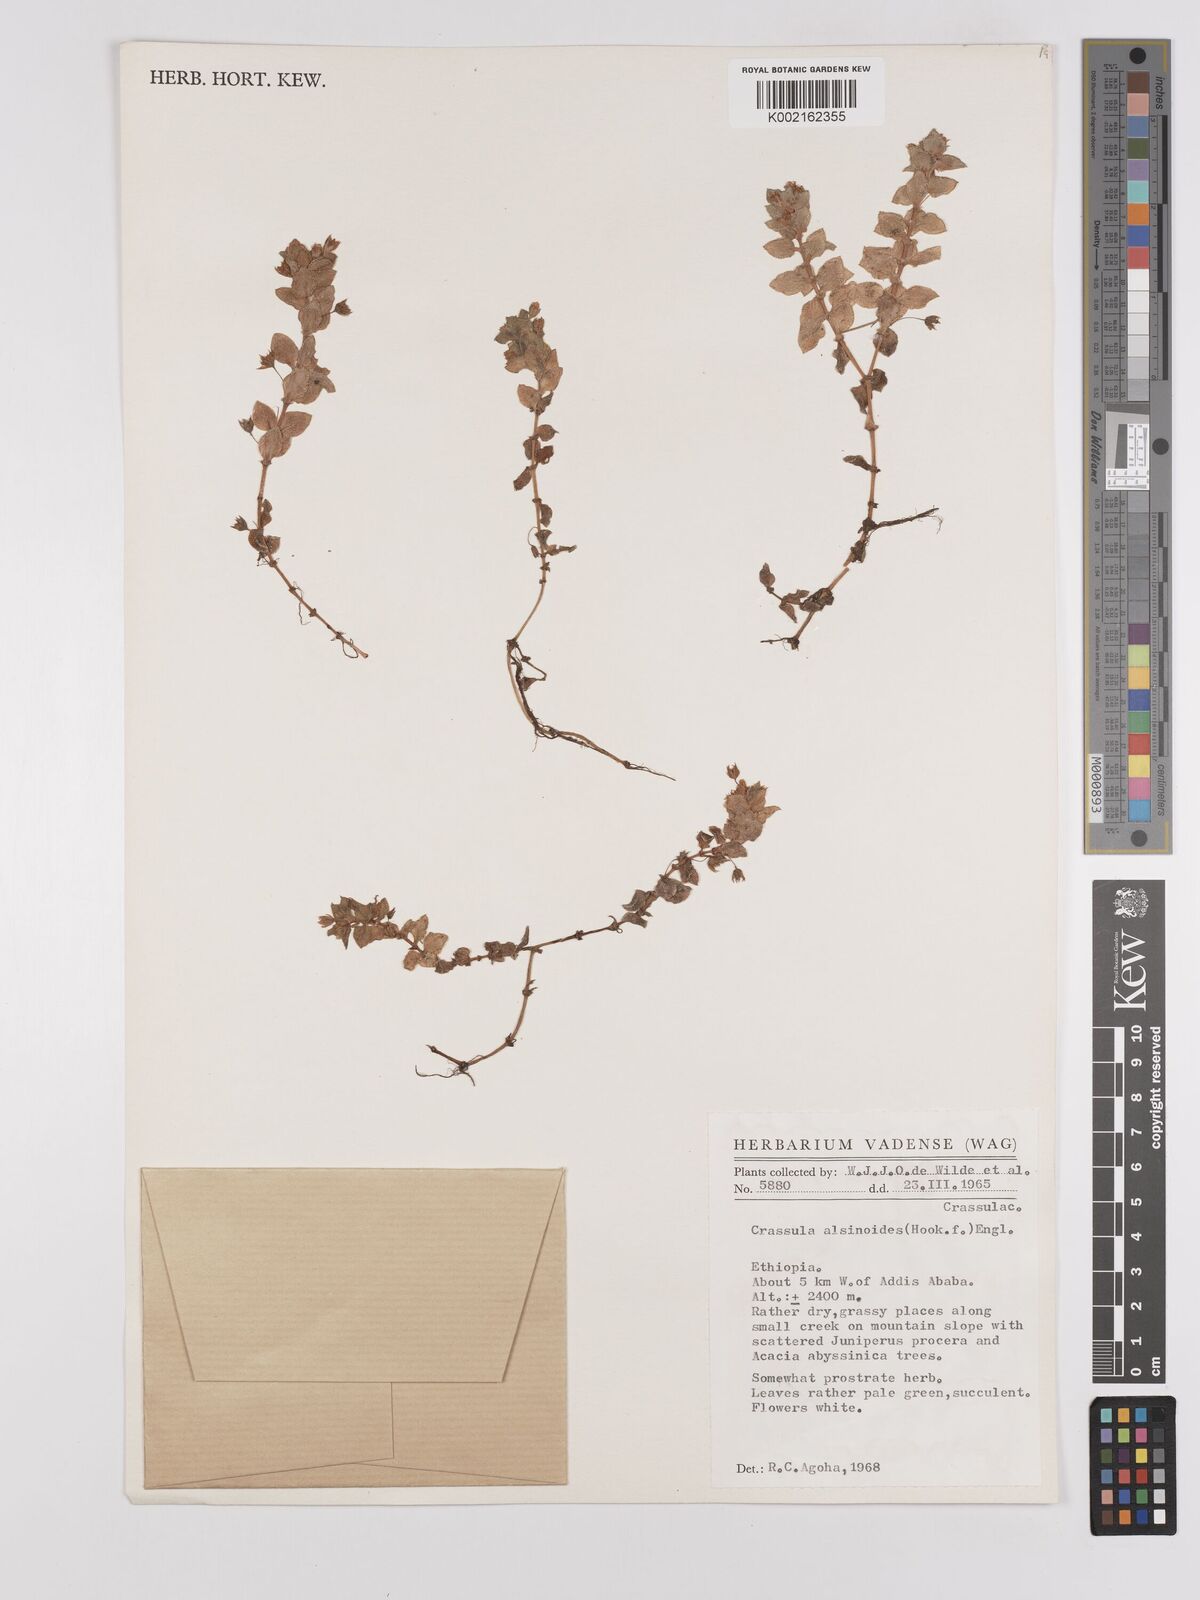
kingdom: Plantae
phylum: Tracheophyta
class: Magnoliopsida
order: Saxifragales
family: Crassulaceae
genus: Crassula
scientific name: Crassula alsinoides
